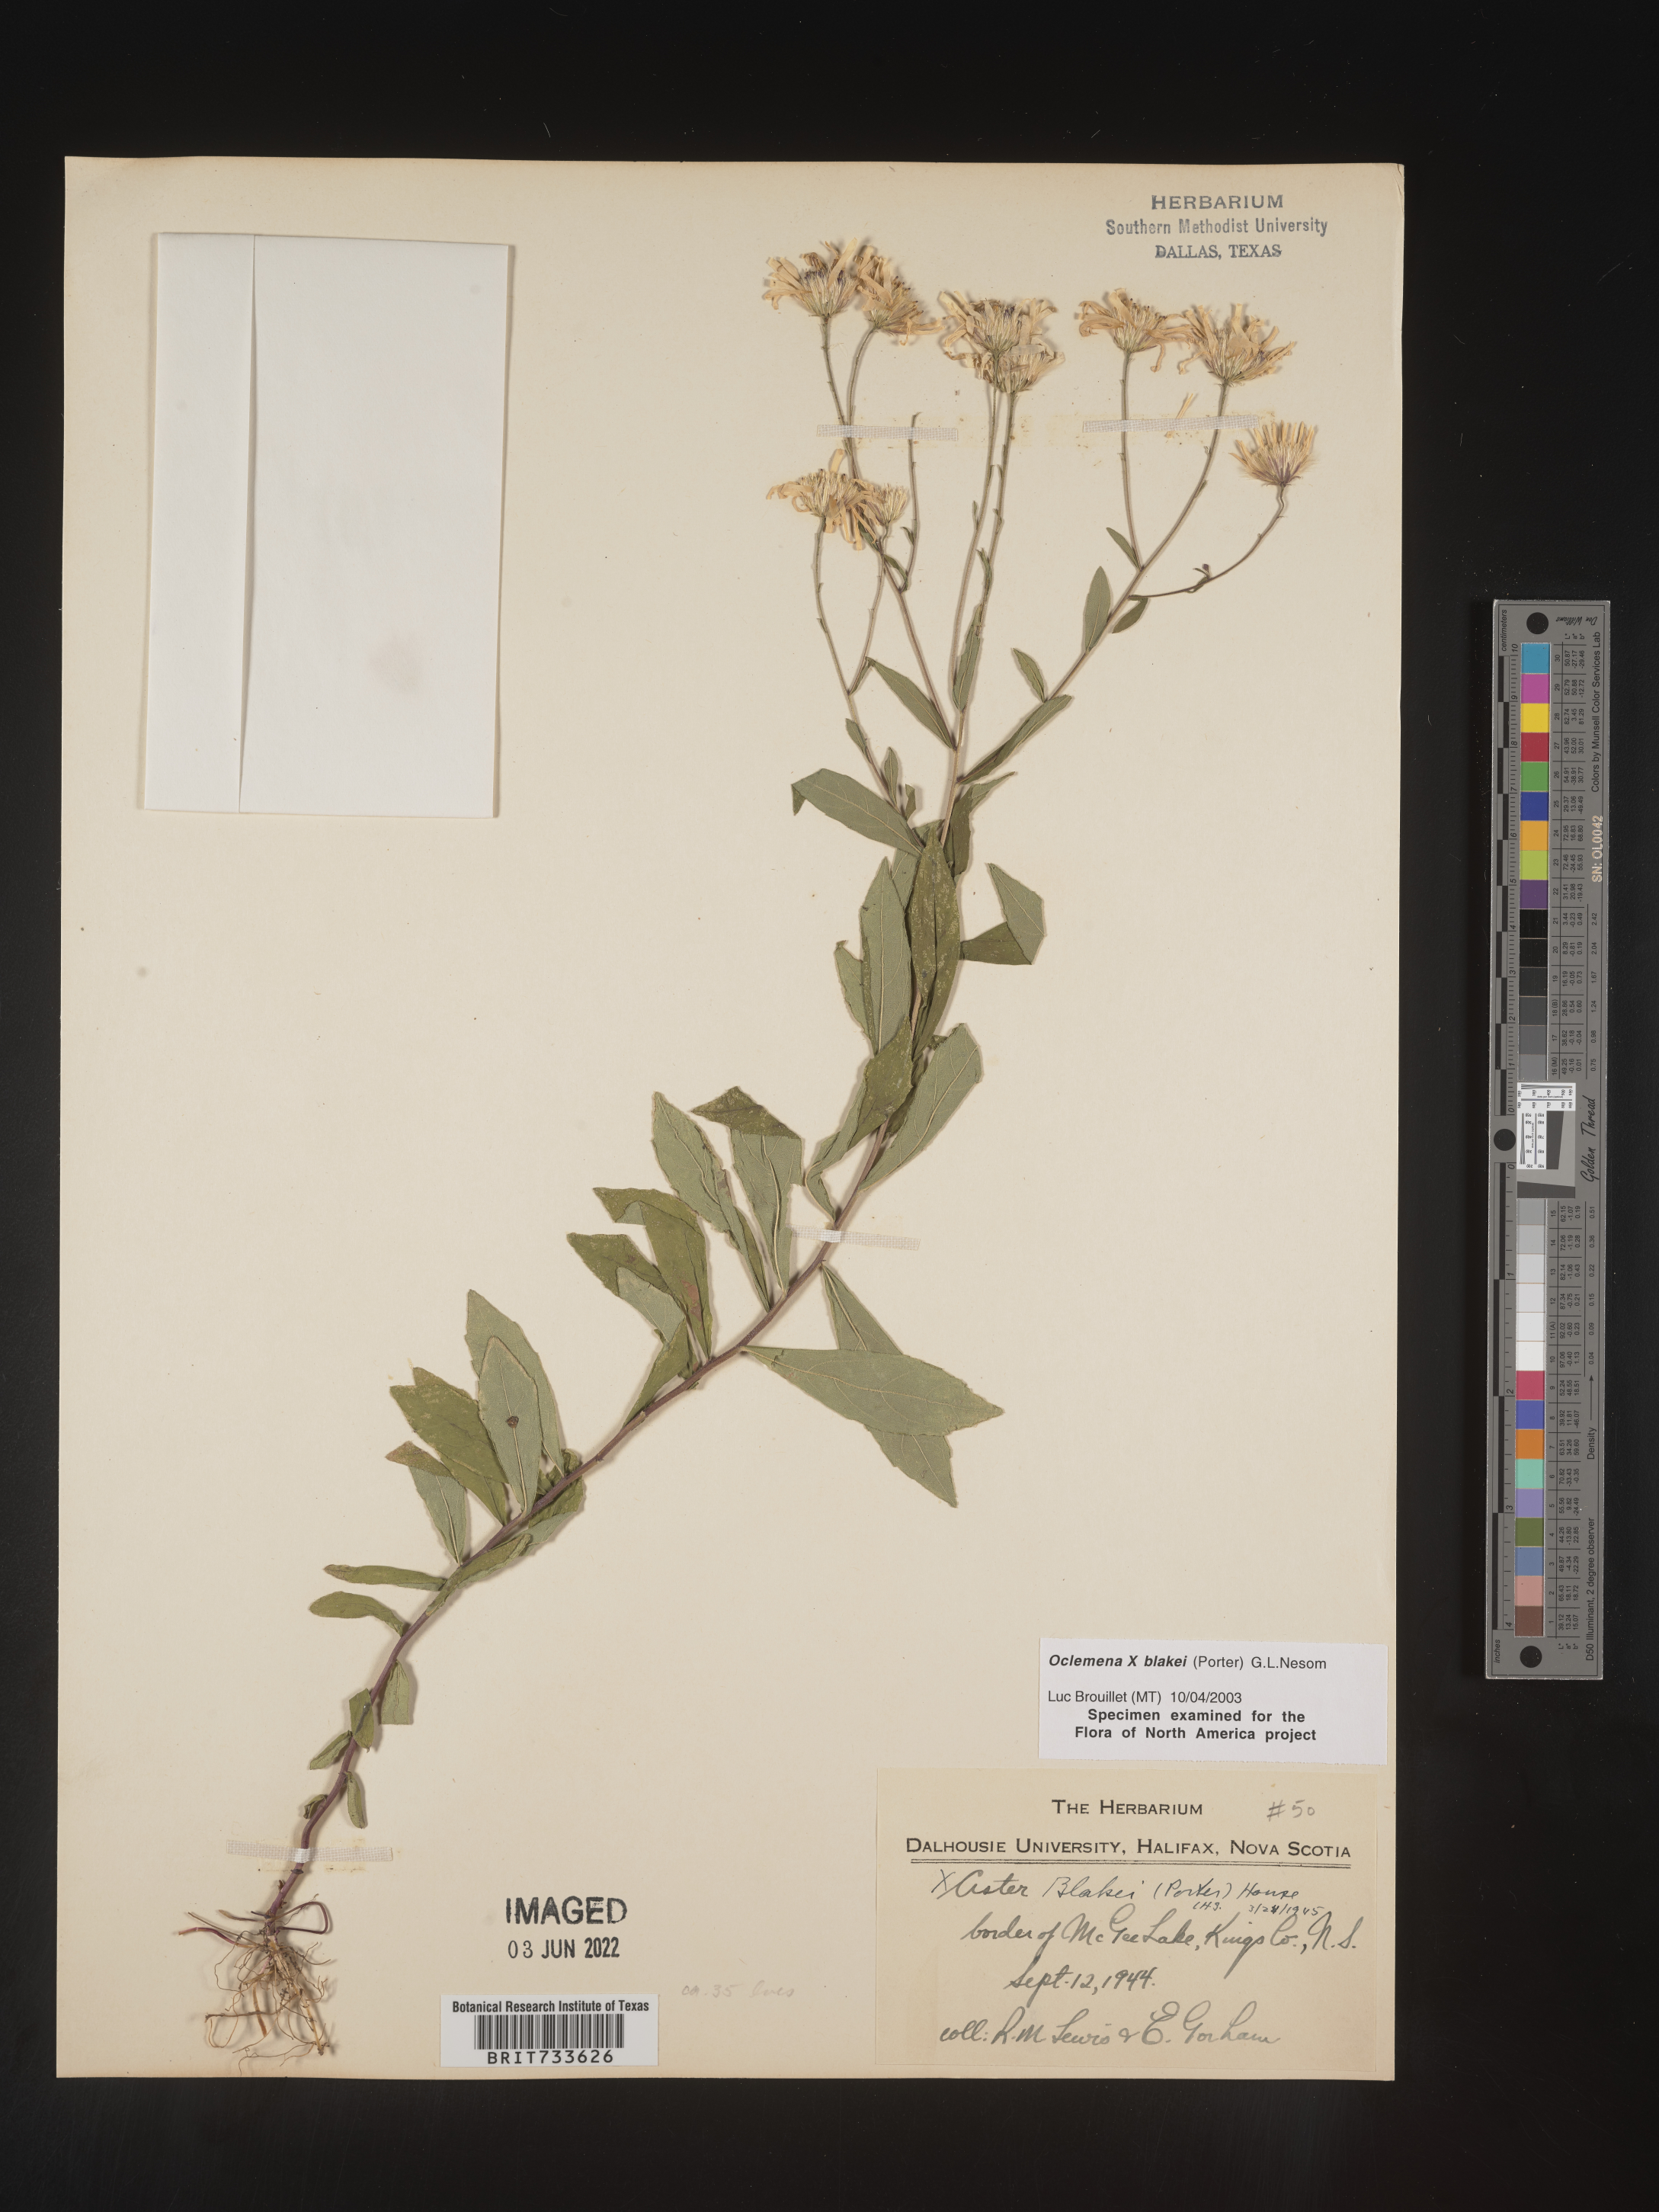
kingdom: Plantae
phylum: Tracheophyta
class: Magnoliopsida
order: Asterales
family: Asteraceae
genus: Oclemena
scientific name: Oclemena blakei
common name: Blake's aster
